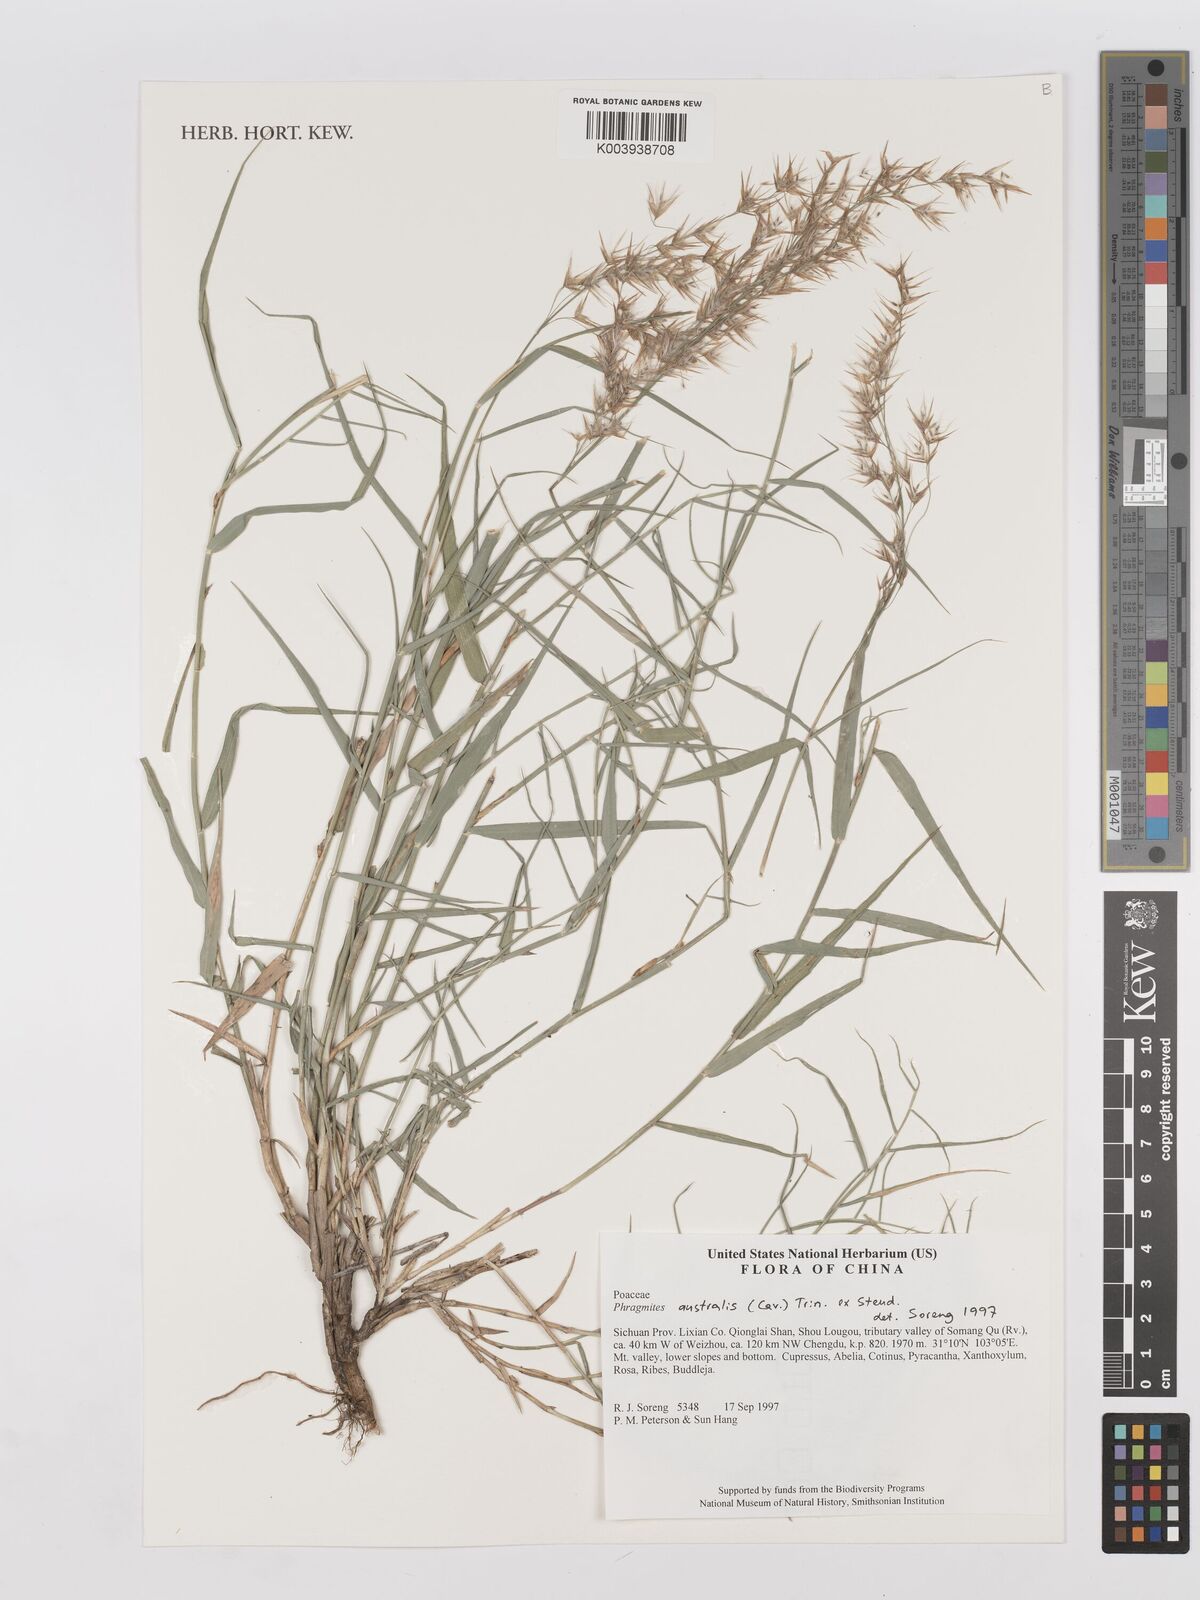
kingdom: Plantae
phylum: Tracheophyta
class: Liliopsida
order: Poales
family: Poaceae
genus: Phragmites
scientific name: Phragmites australis
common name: Common reed
